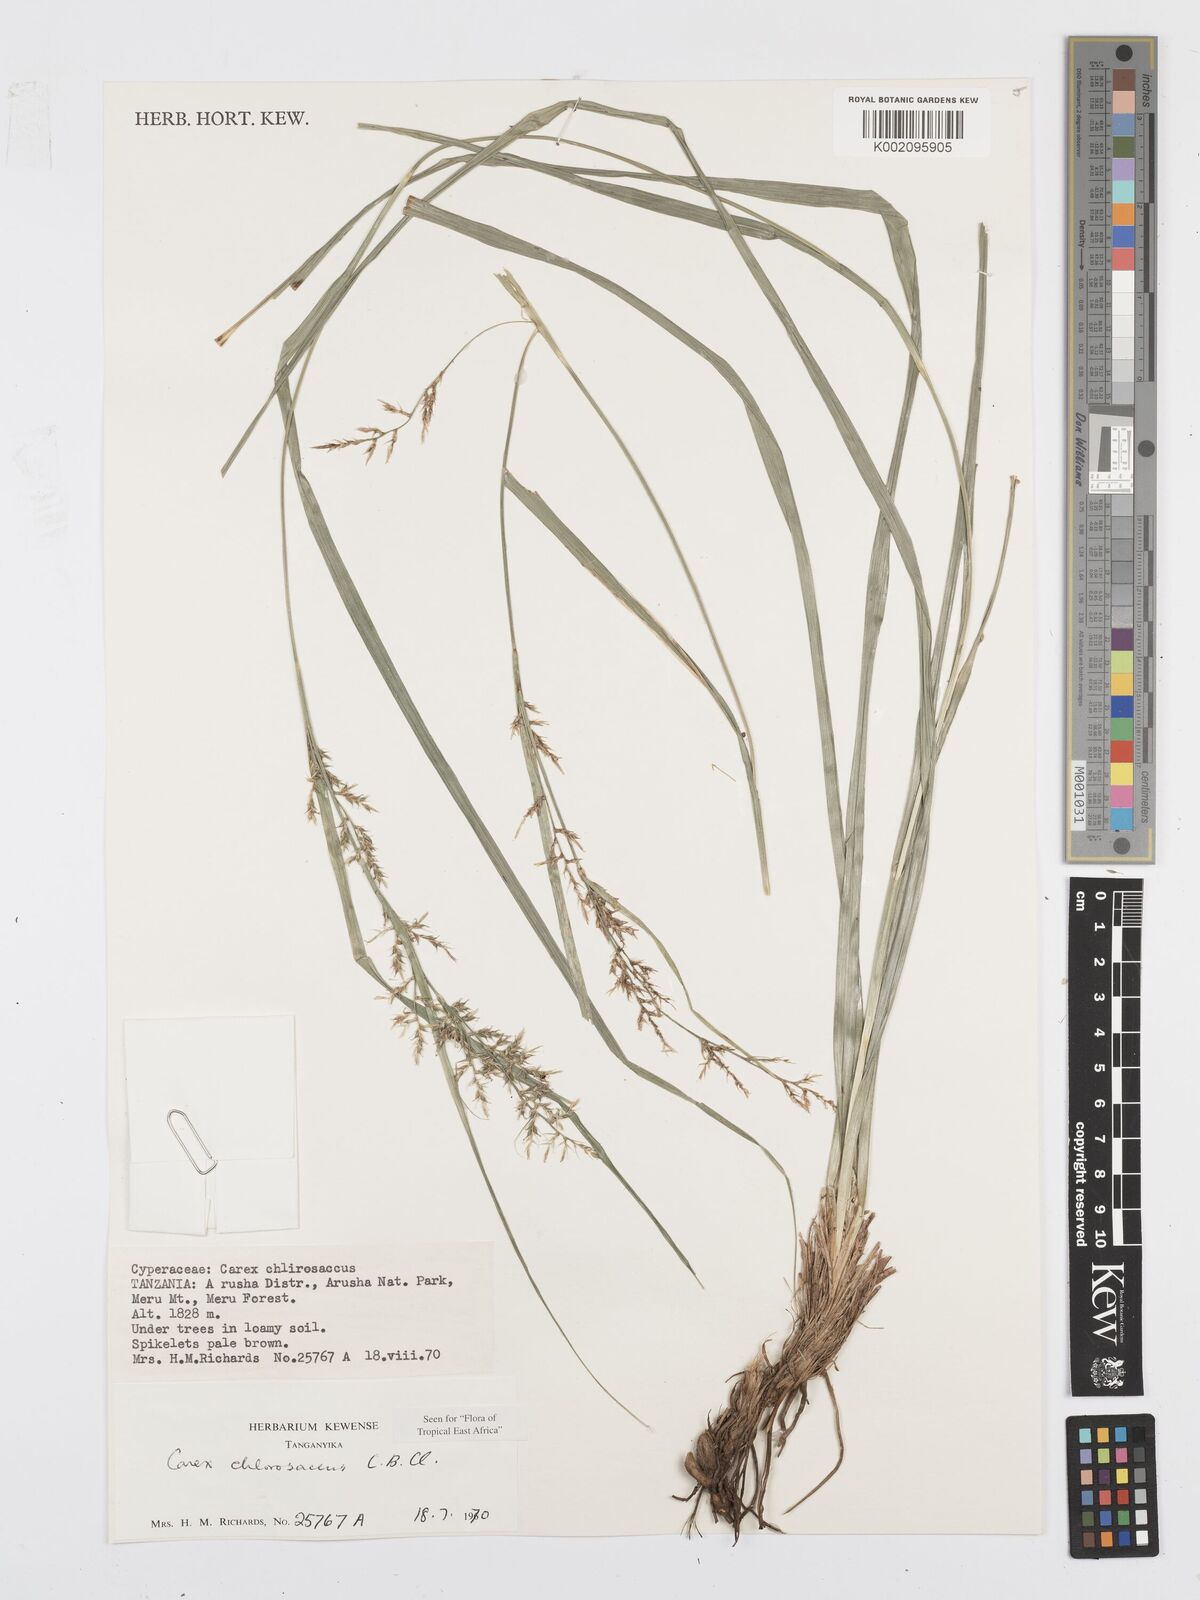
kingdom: Plantae
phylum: Tracheophyta
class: Liliopsida
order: Poales
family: Cyperaceae
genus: Carex
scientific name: Carex chlorosaccus
